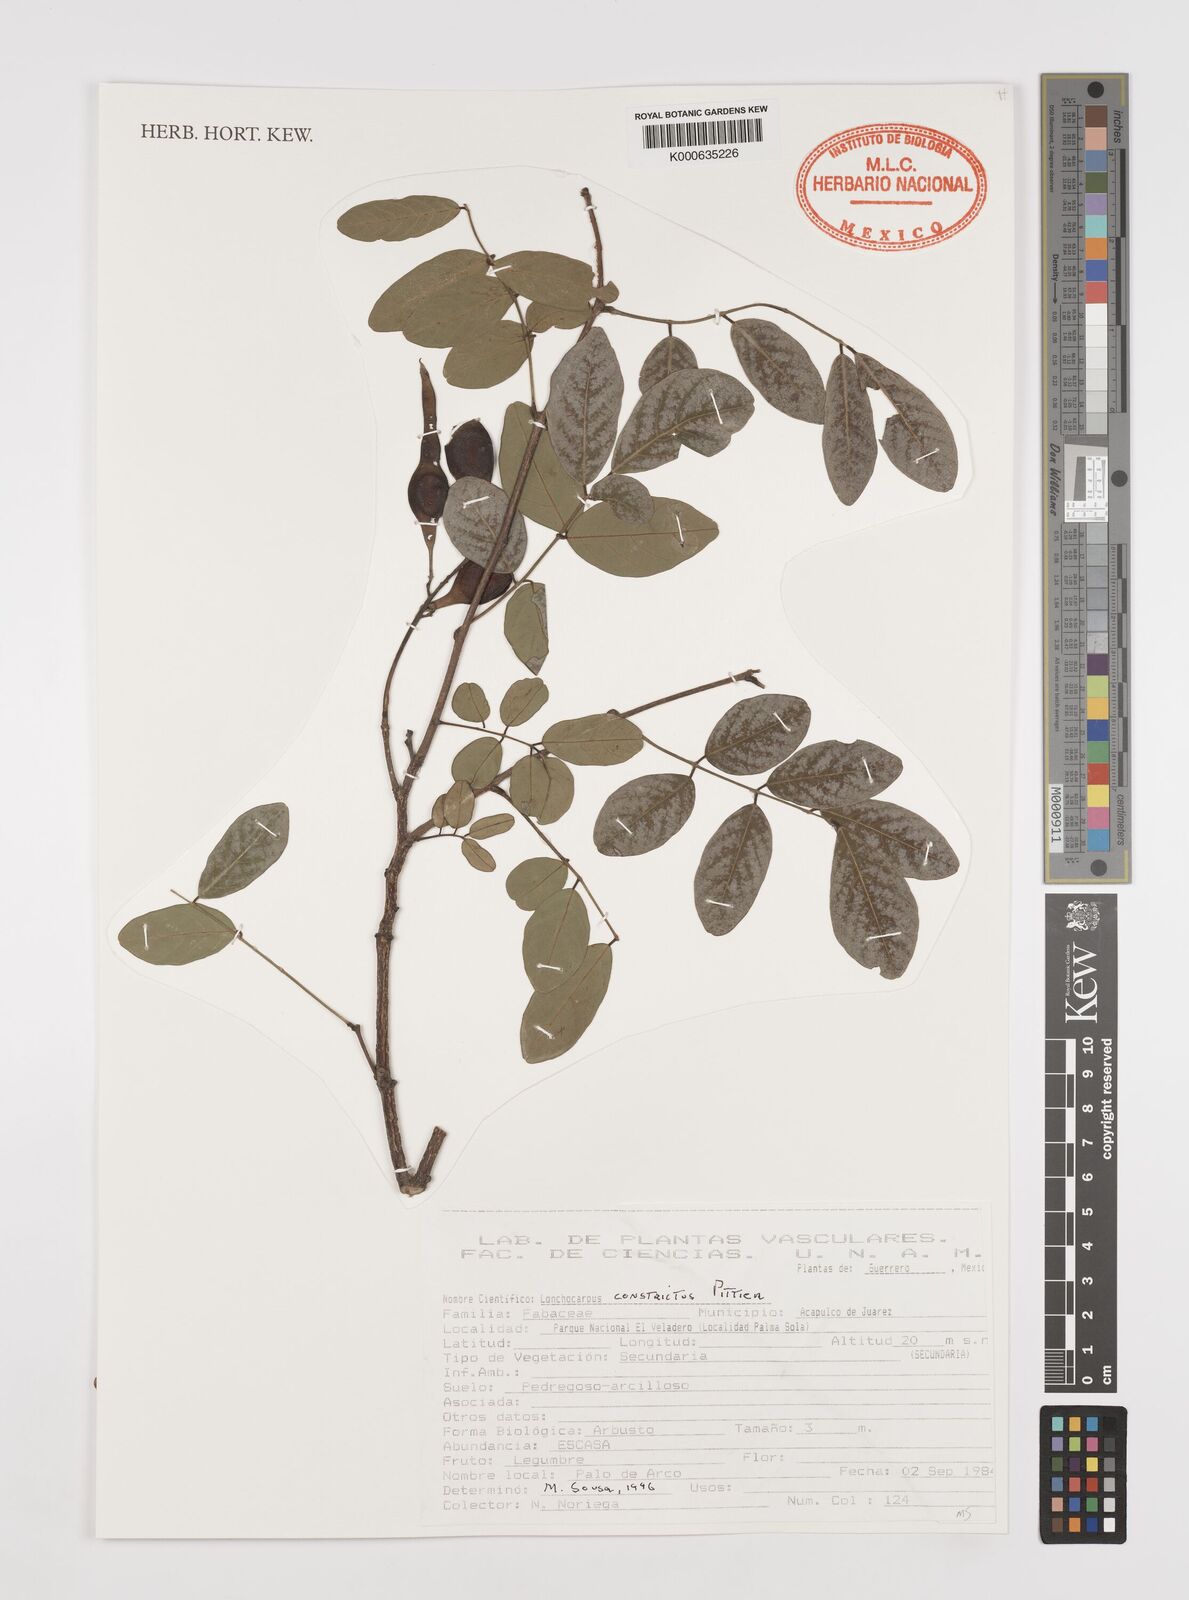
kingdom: Plantae
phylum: Tracheophyta
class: Magnoliopsida
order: Fabales
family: Fabaceae
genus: Lonchocarpus
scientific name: Lonchocarpus constrictus
